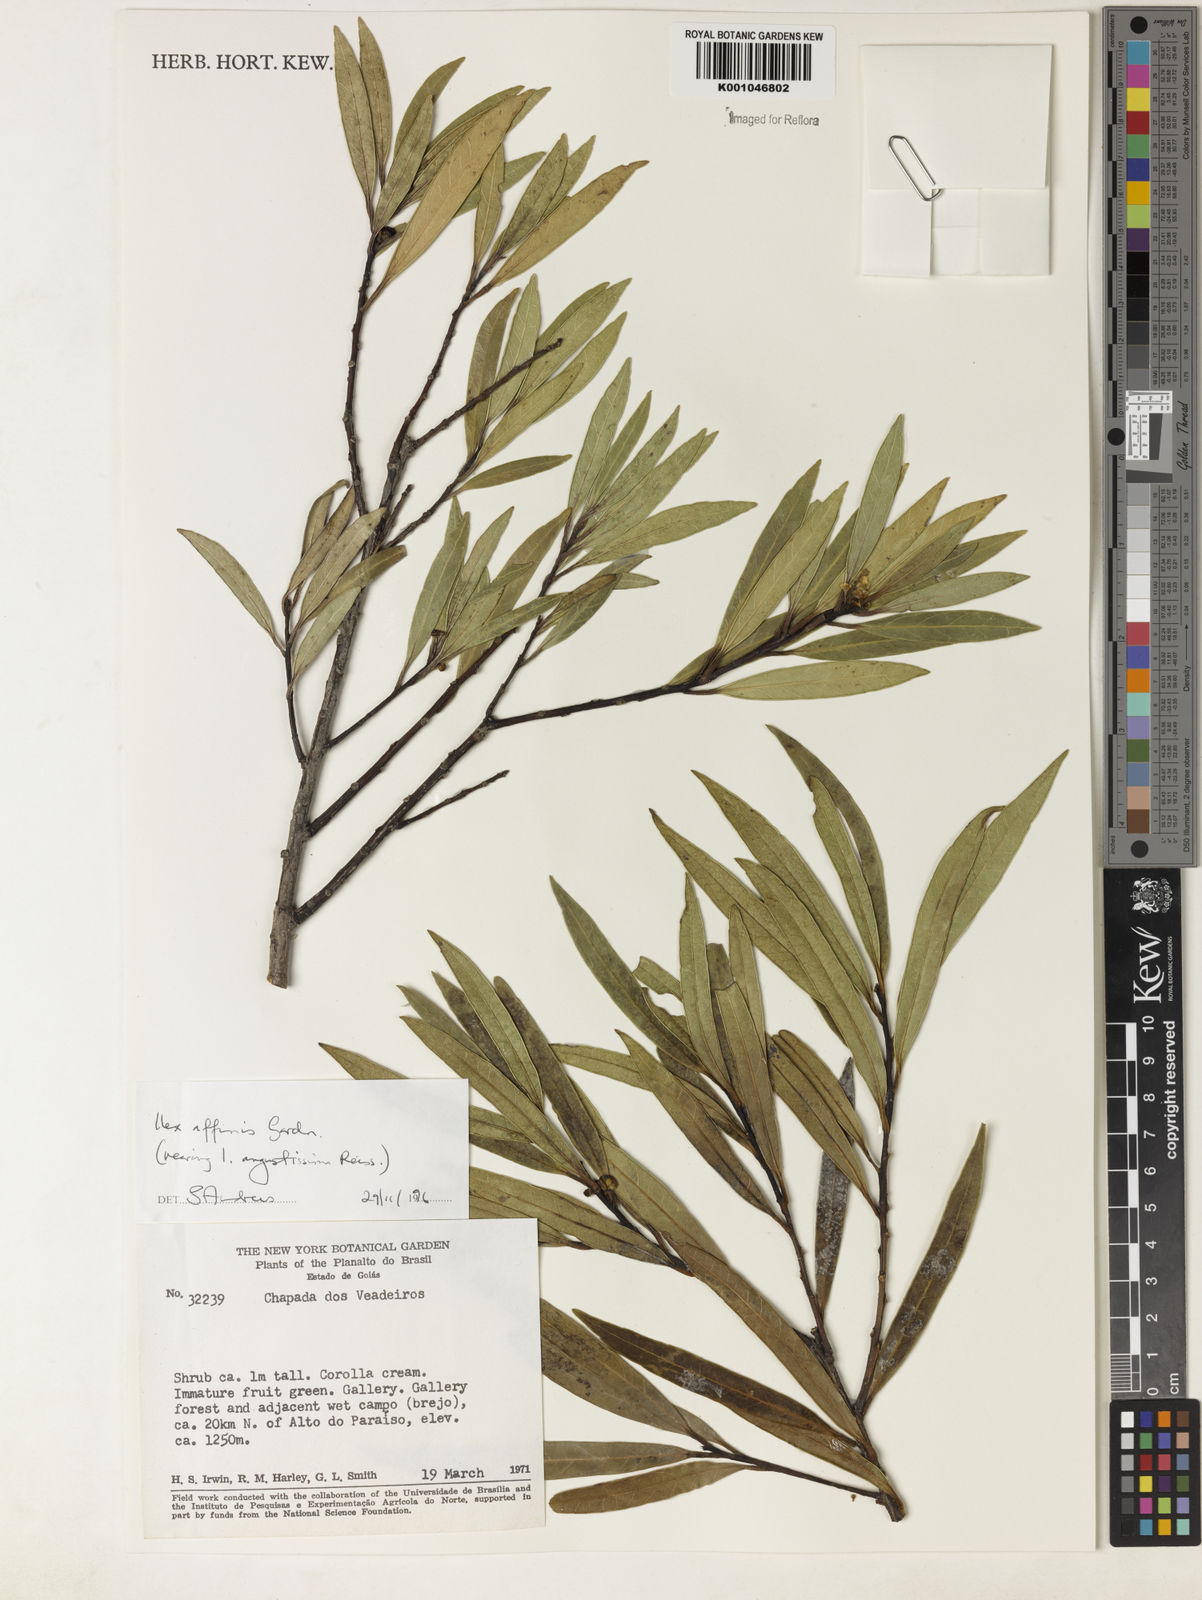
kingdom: Plantae
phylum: Tracheophyta
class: Magnoliopsida
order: Aquifoliales
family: Aquifoliaceae
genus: Ilex
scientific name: Ilex angustissima
